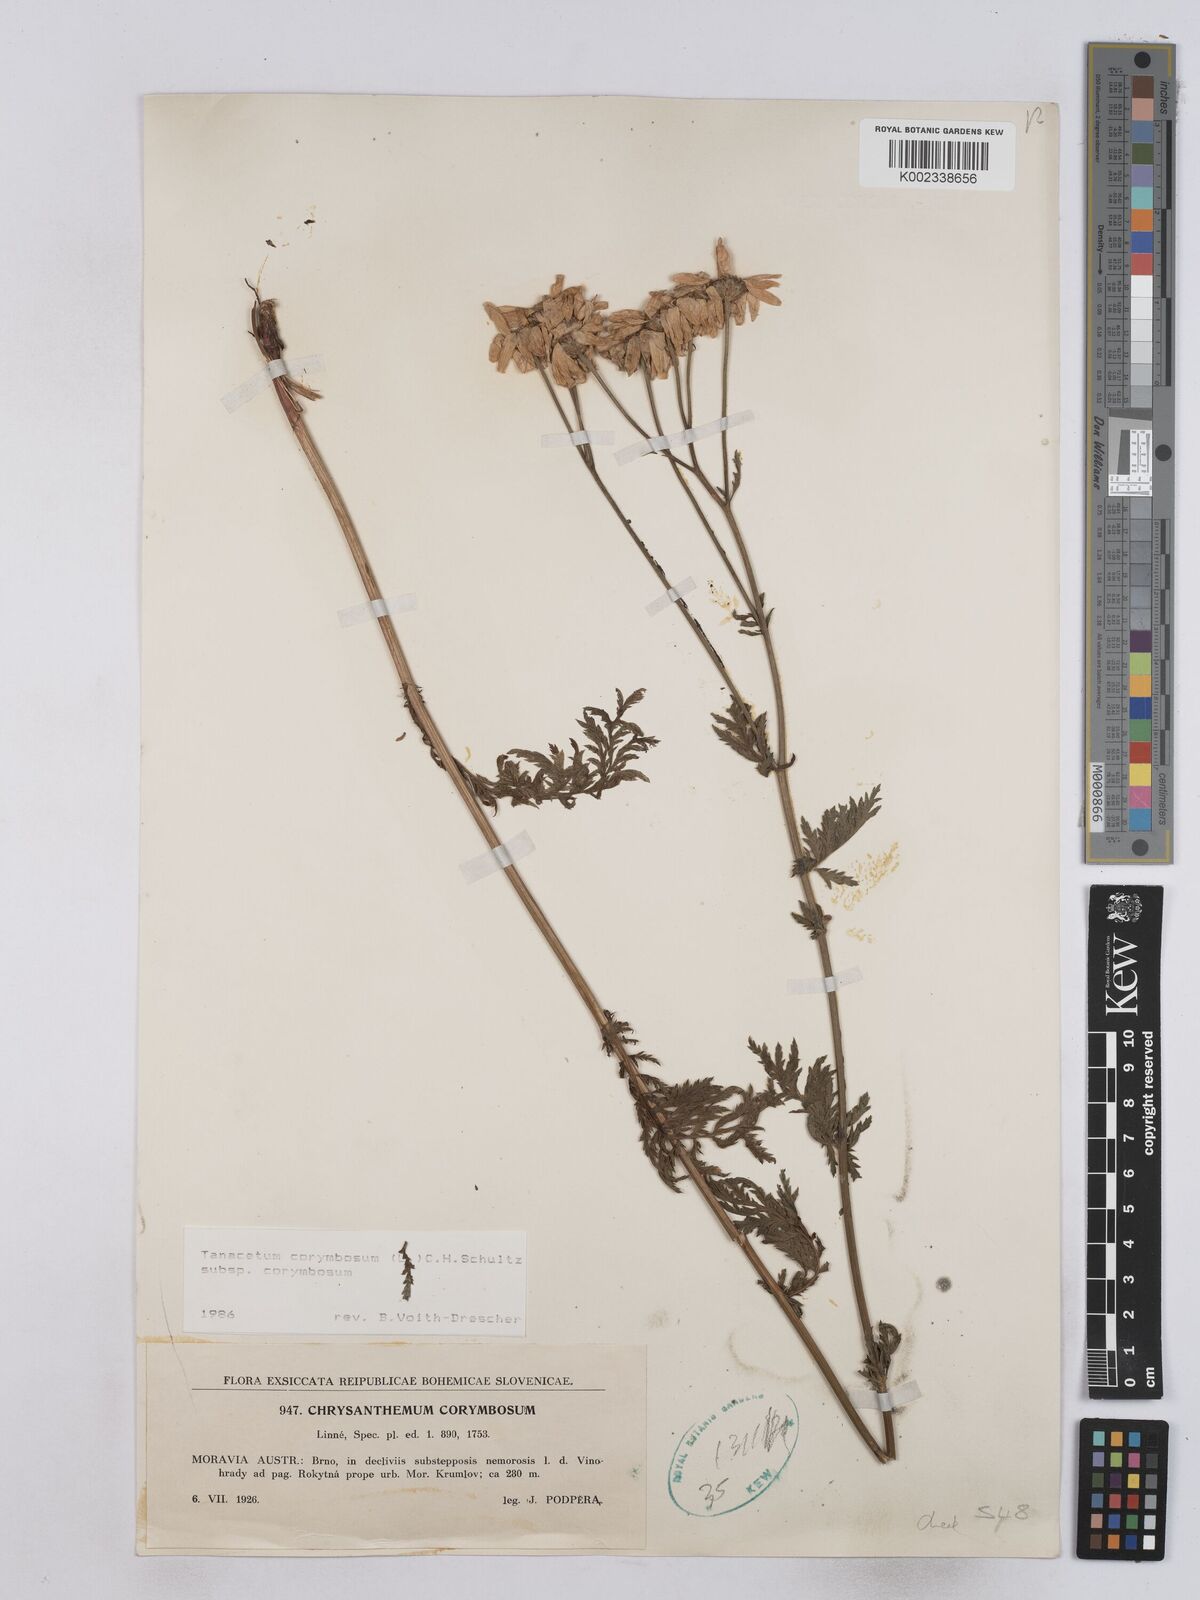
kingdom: Plantae
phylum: Tracheophyta
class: Magnoliopsida
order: Asterales
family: Asteraceae
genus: Tanacetum
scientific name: Tanacetum corymbosum
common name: Scentless feverfew
